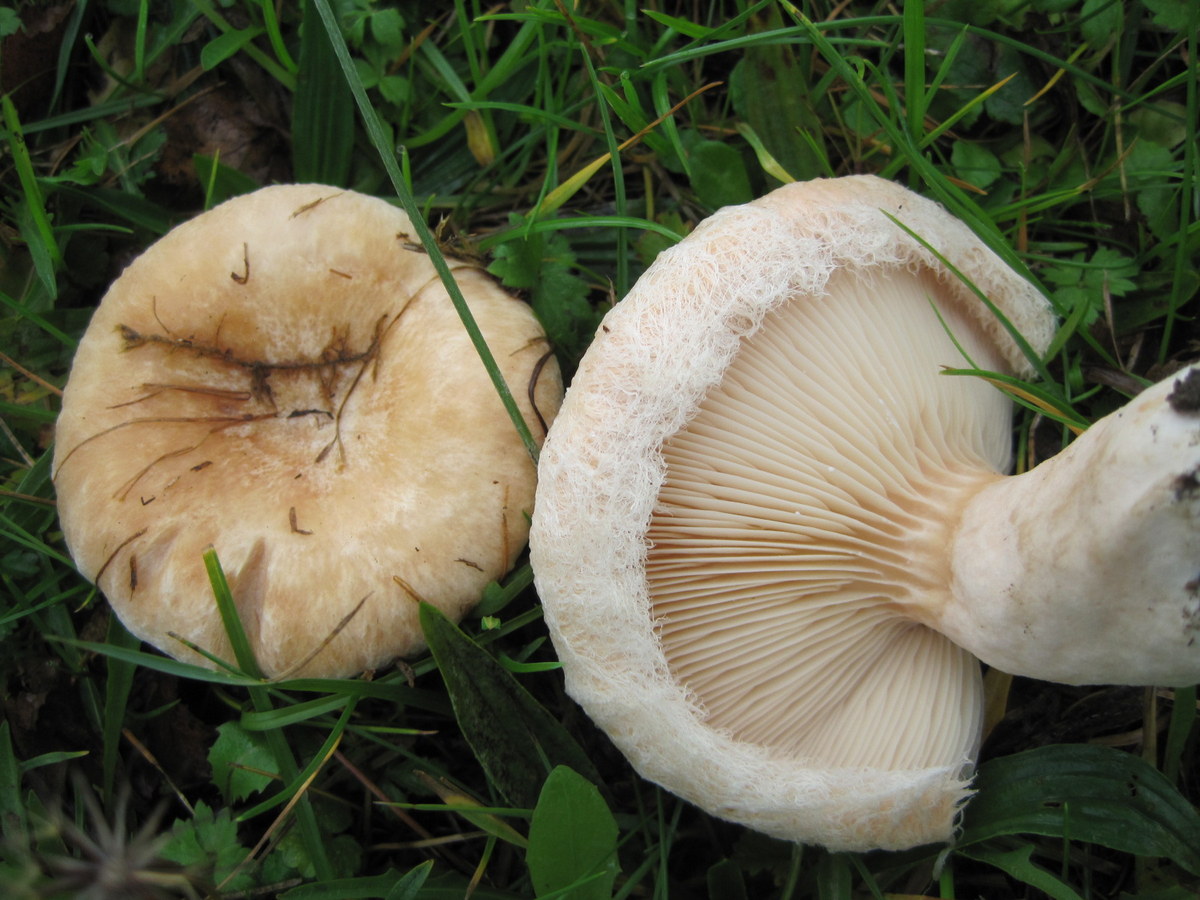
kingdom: Fungi
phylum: Basidiomycota
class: Agaricomycetes
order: Russulales
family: Russulaceae
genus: Lactarius
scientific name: Lactarius pubescens
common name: dunet mælkehat
